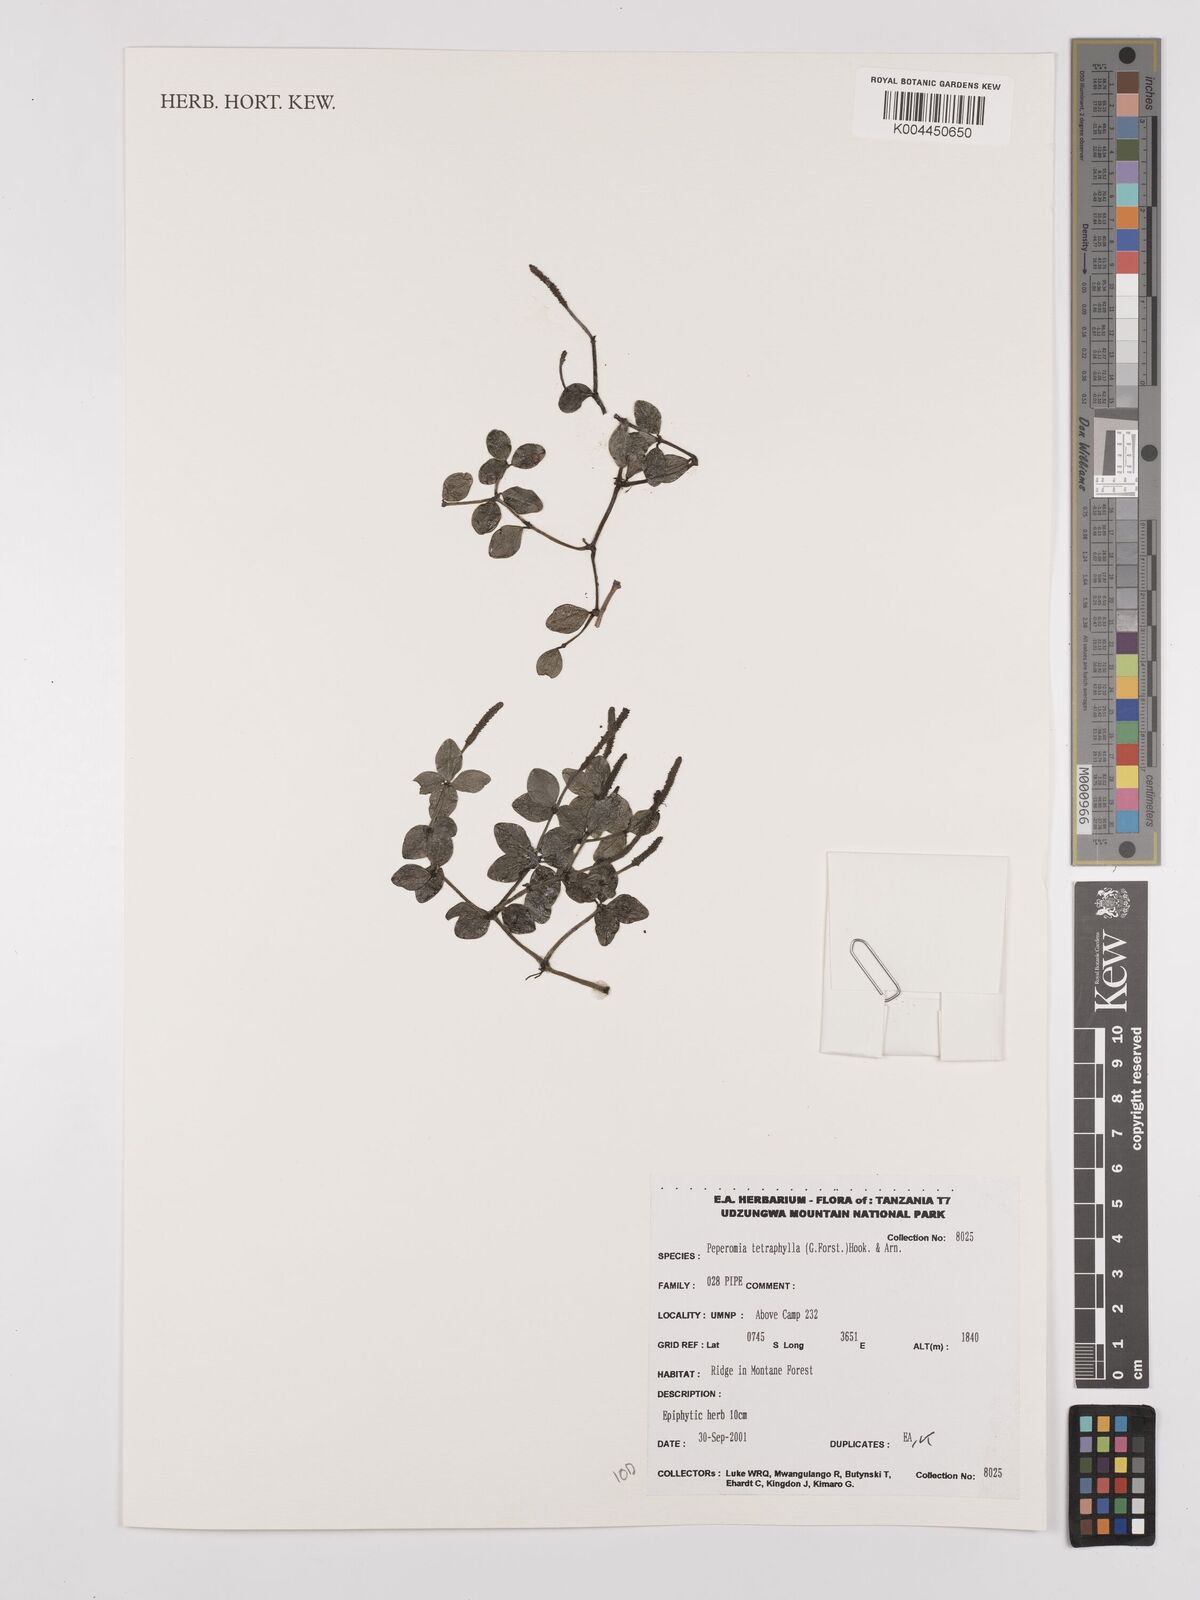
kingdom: Plantae
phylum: Tracheophyta
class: Magnoliopsida
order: Piperales
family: Piperaceae
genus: Peperomia
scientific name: Peperomia tetraphylla
